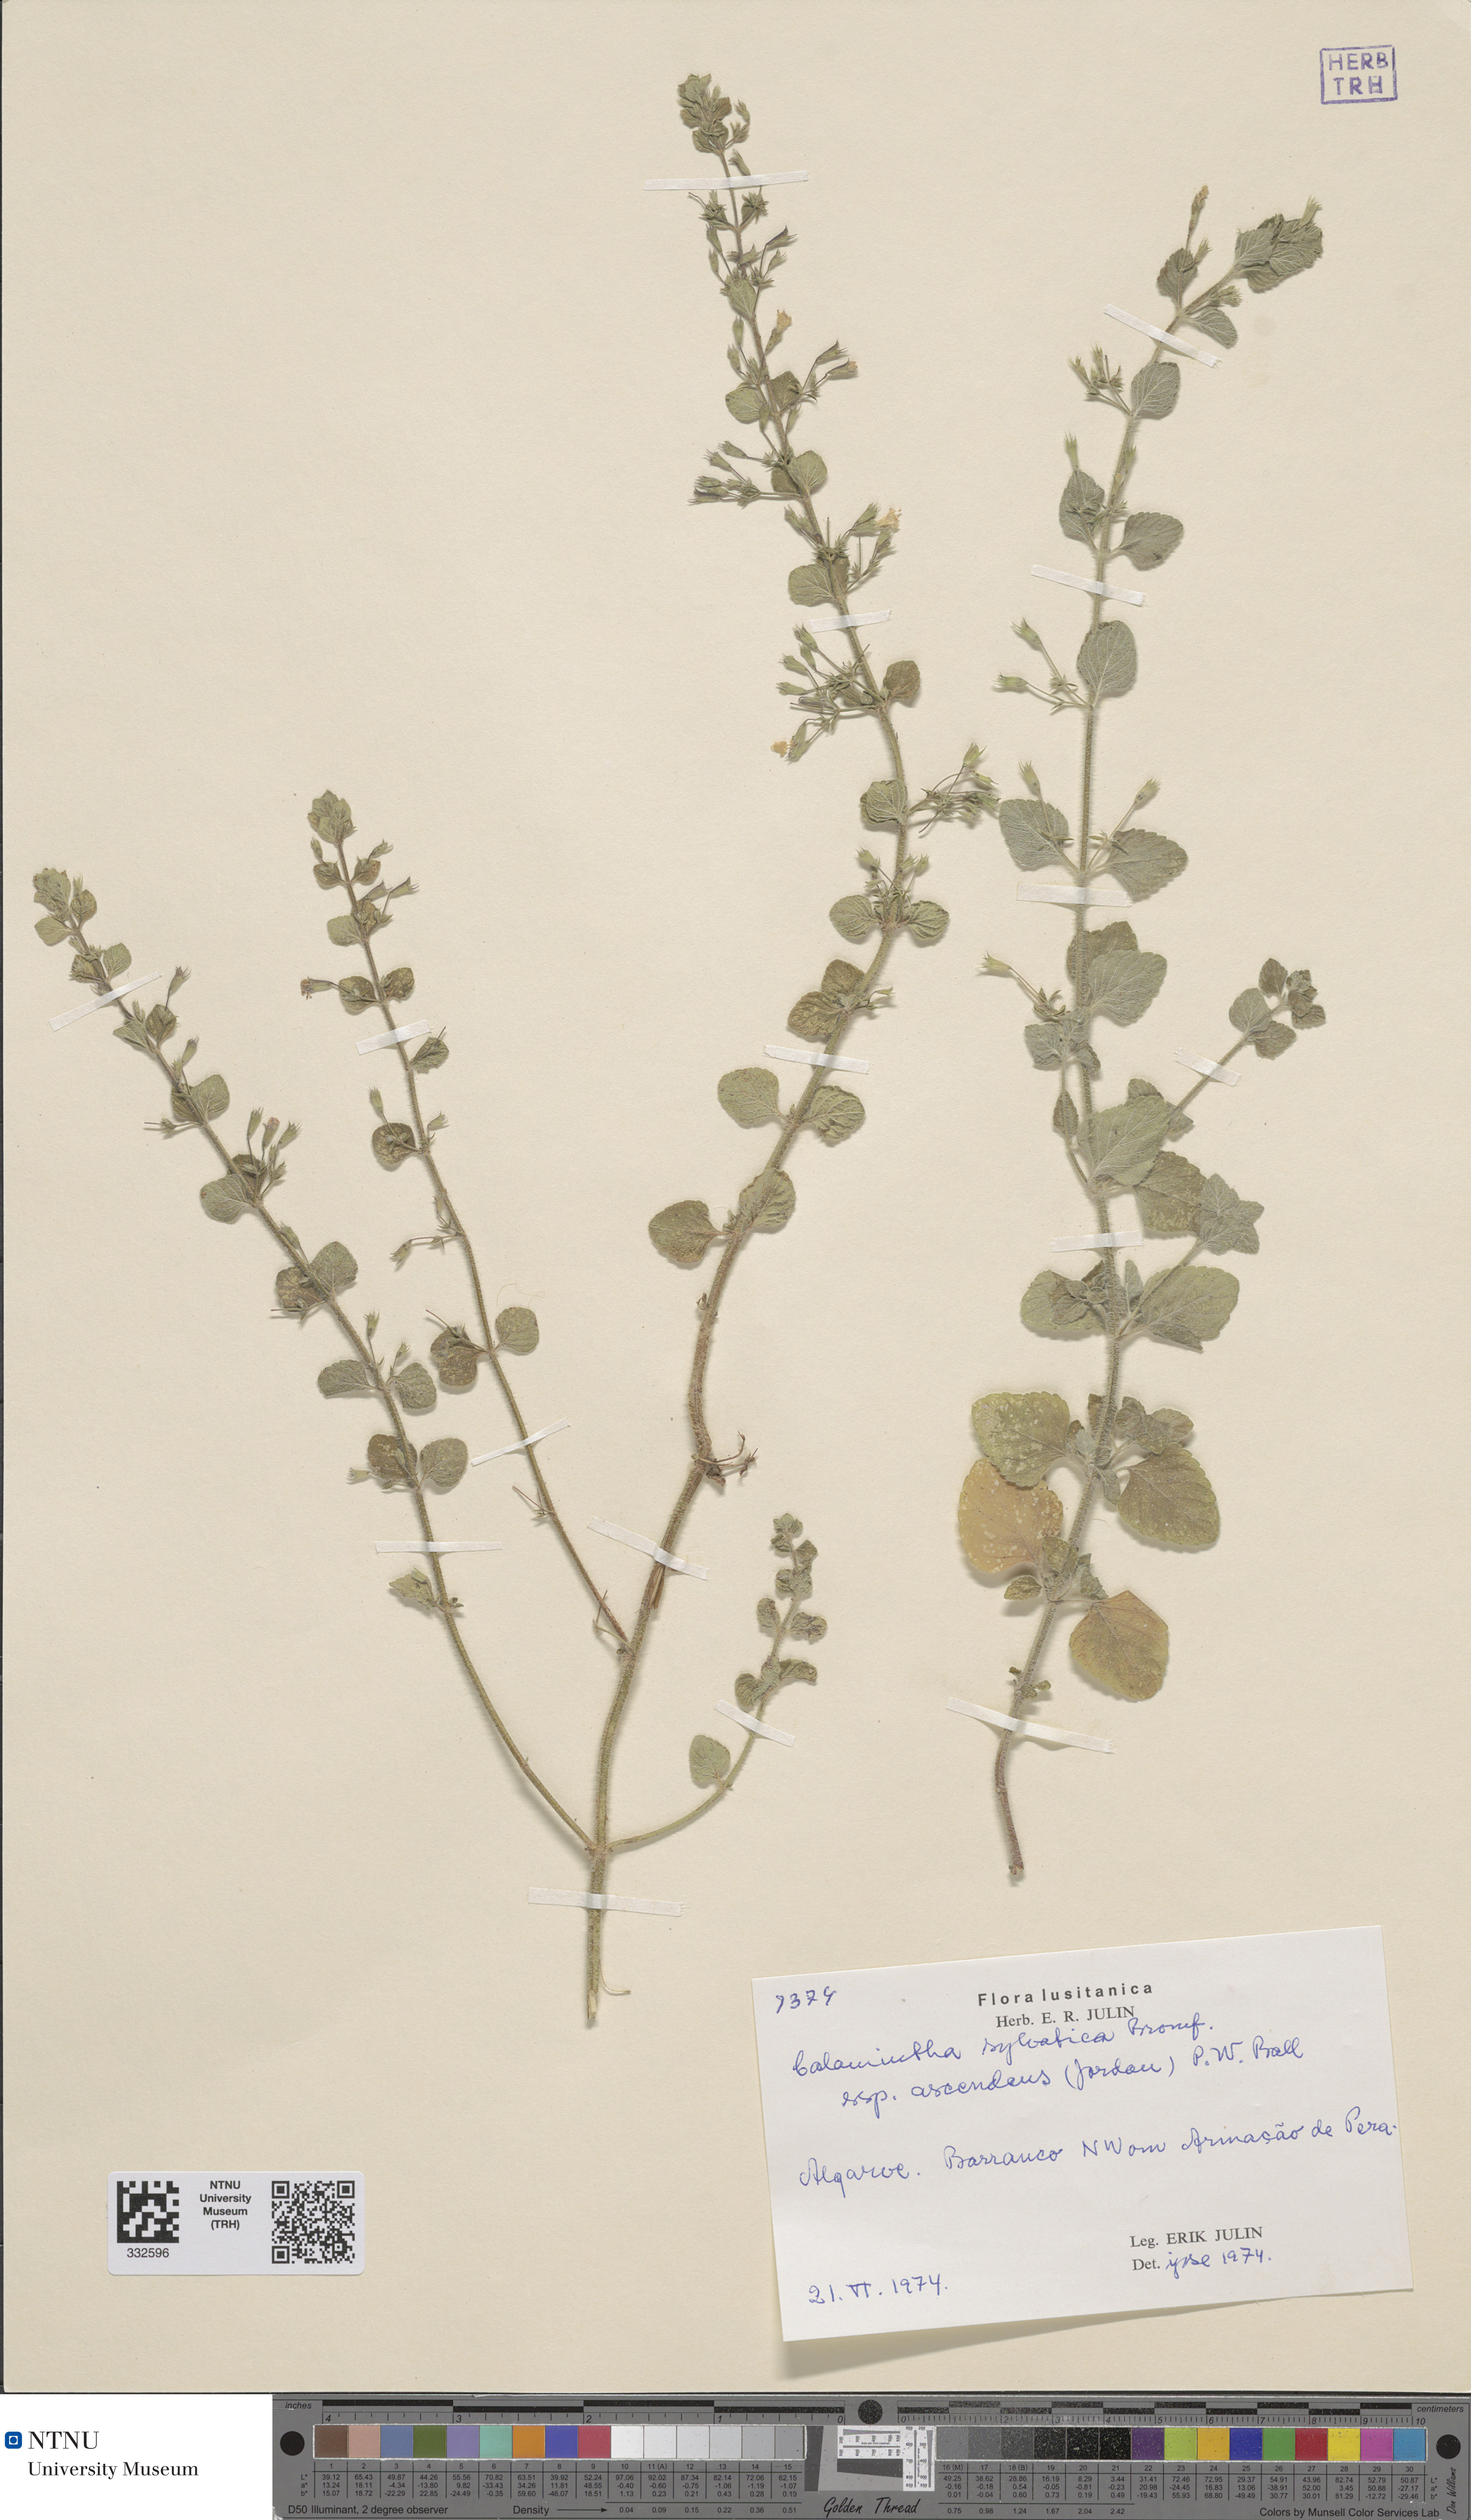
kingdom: Plantae
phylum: Tracheophyta
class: Magnoliopsida
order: Lamiales
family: Lamiaceae
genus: Clinopodium
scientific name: Clinopodium menthifolium
